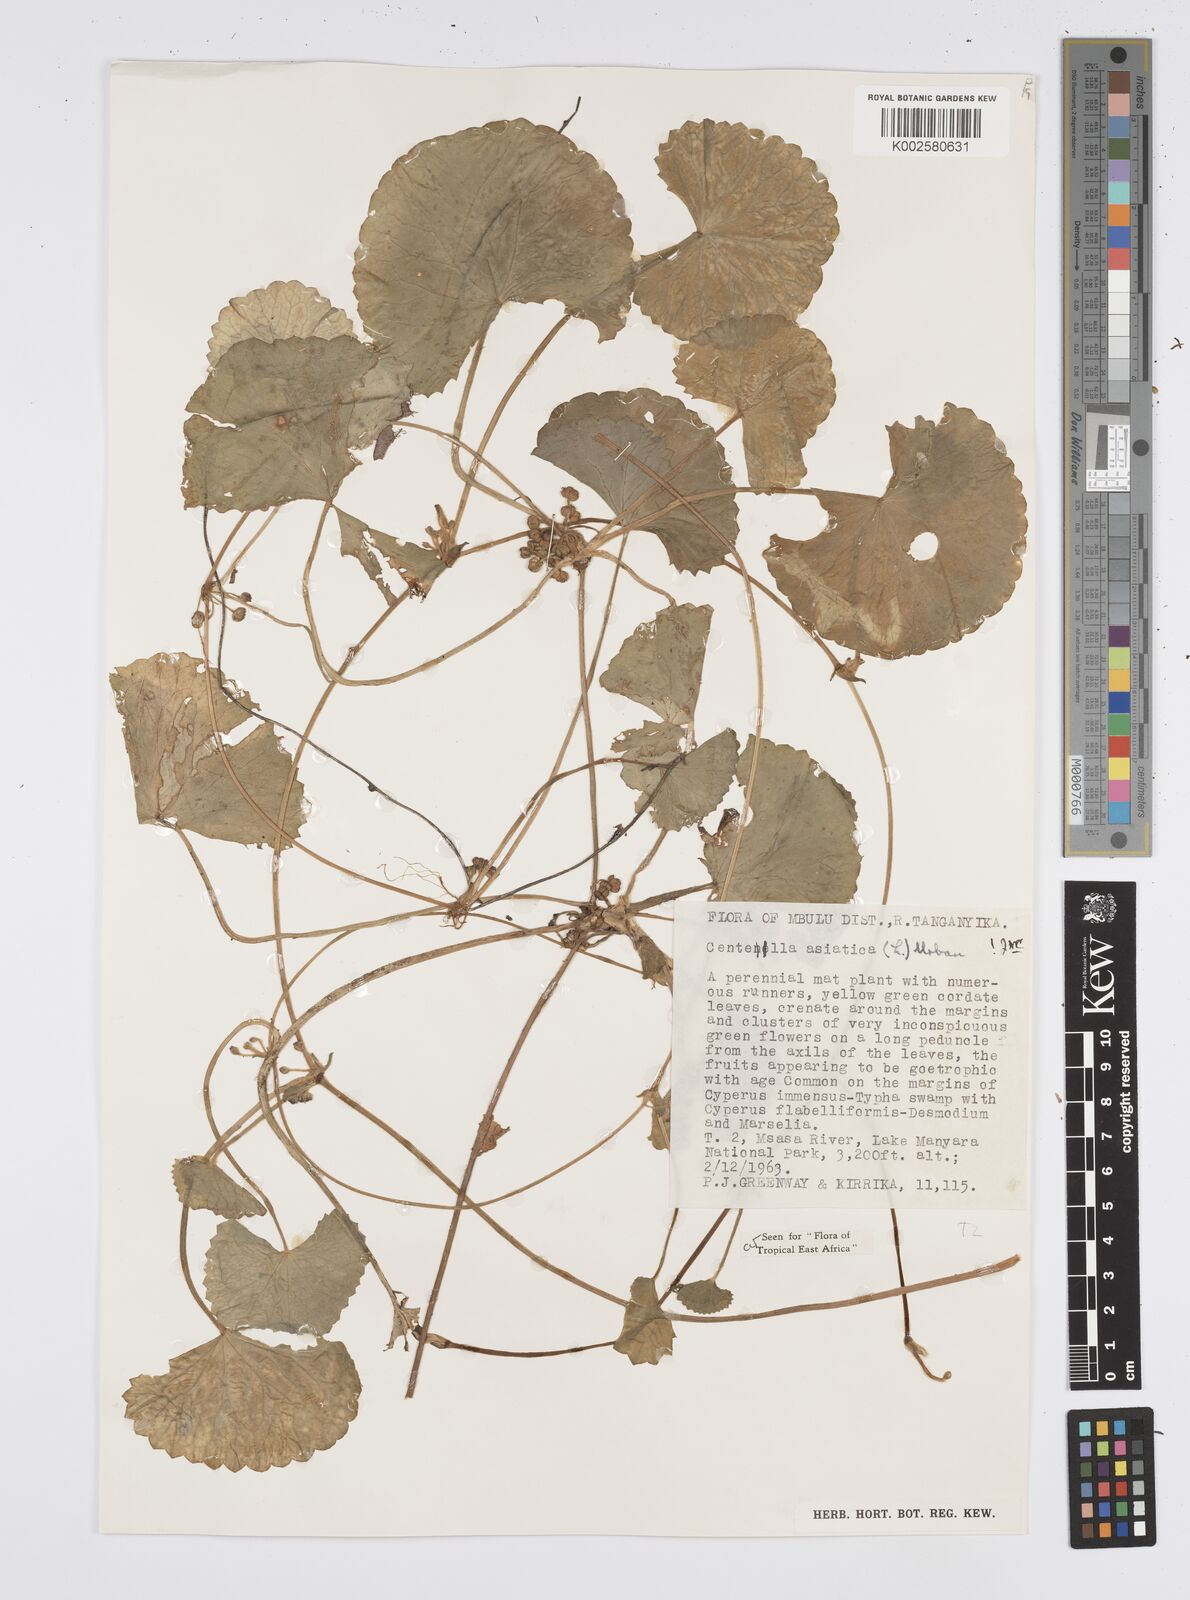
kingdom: Plantae
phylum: Tracheophyta
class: Magnoliopsida
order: Apiales
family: Apiaceae
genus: Centella
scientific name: Centella asiatica
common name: Spadeleaf
